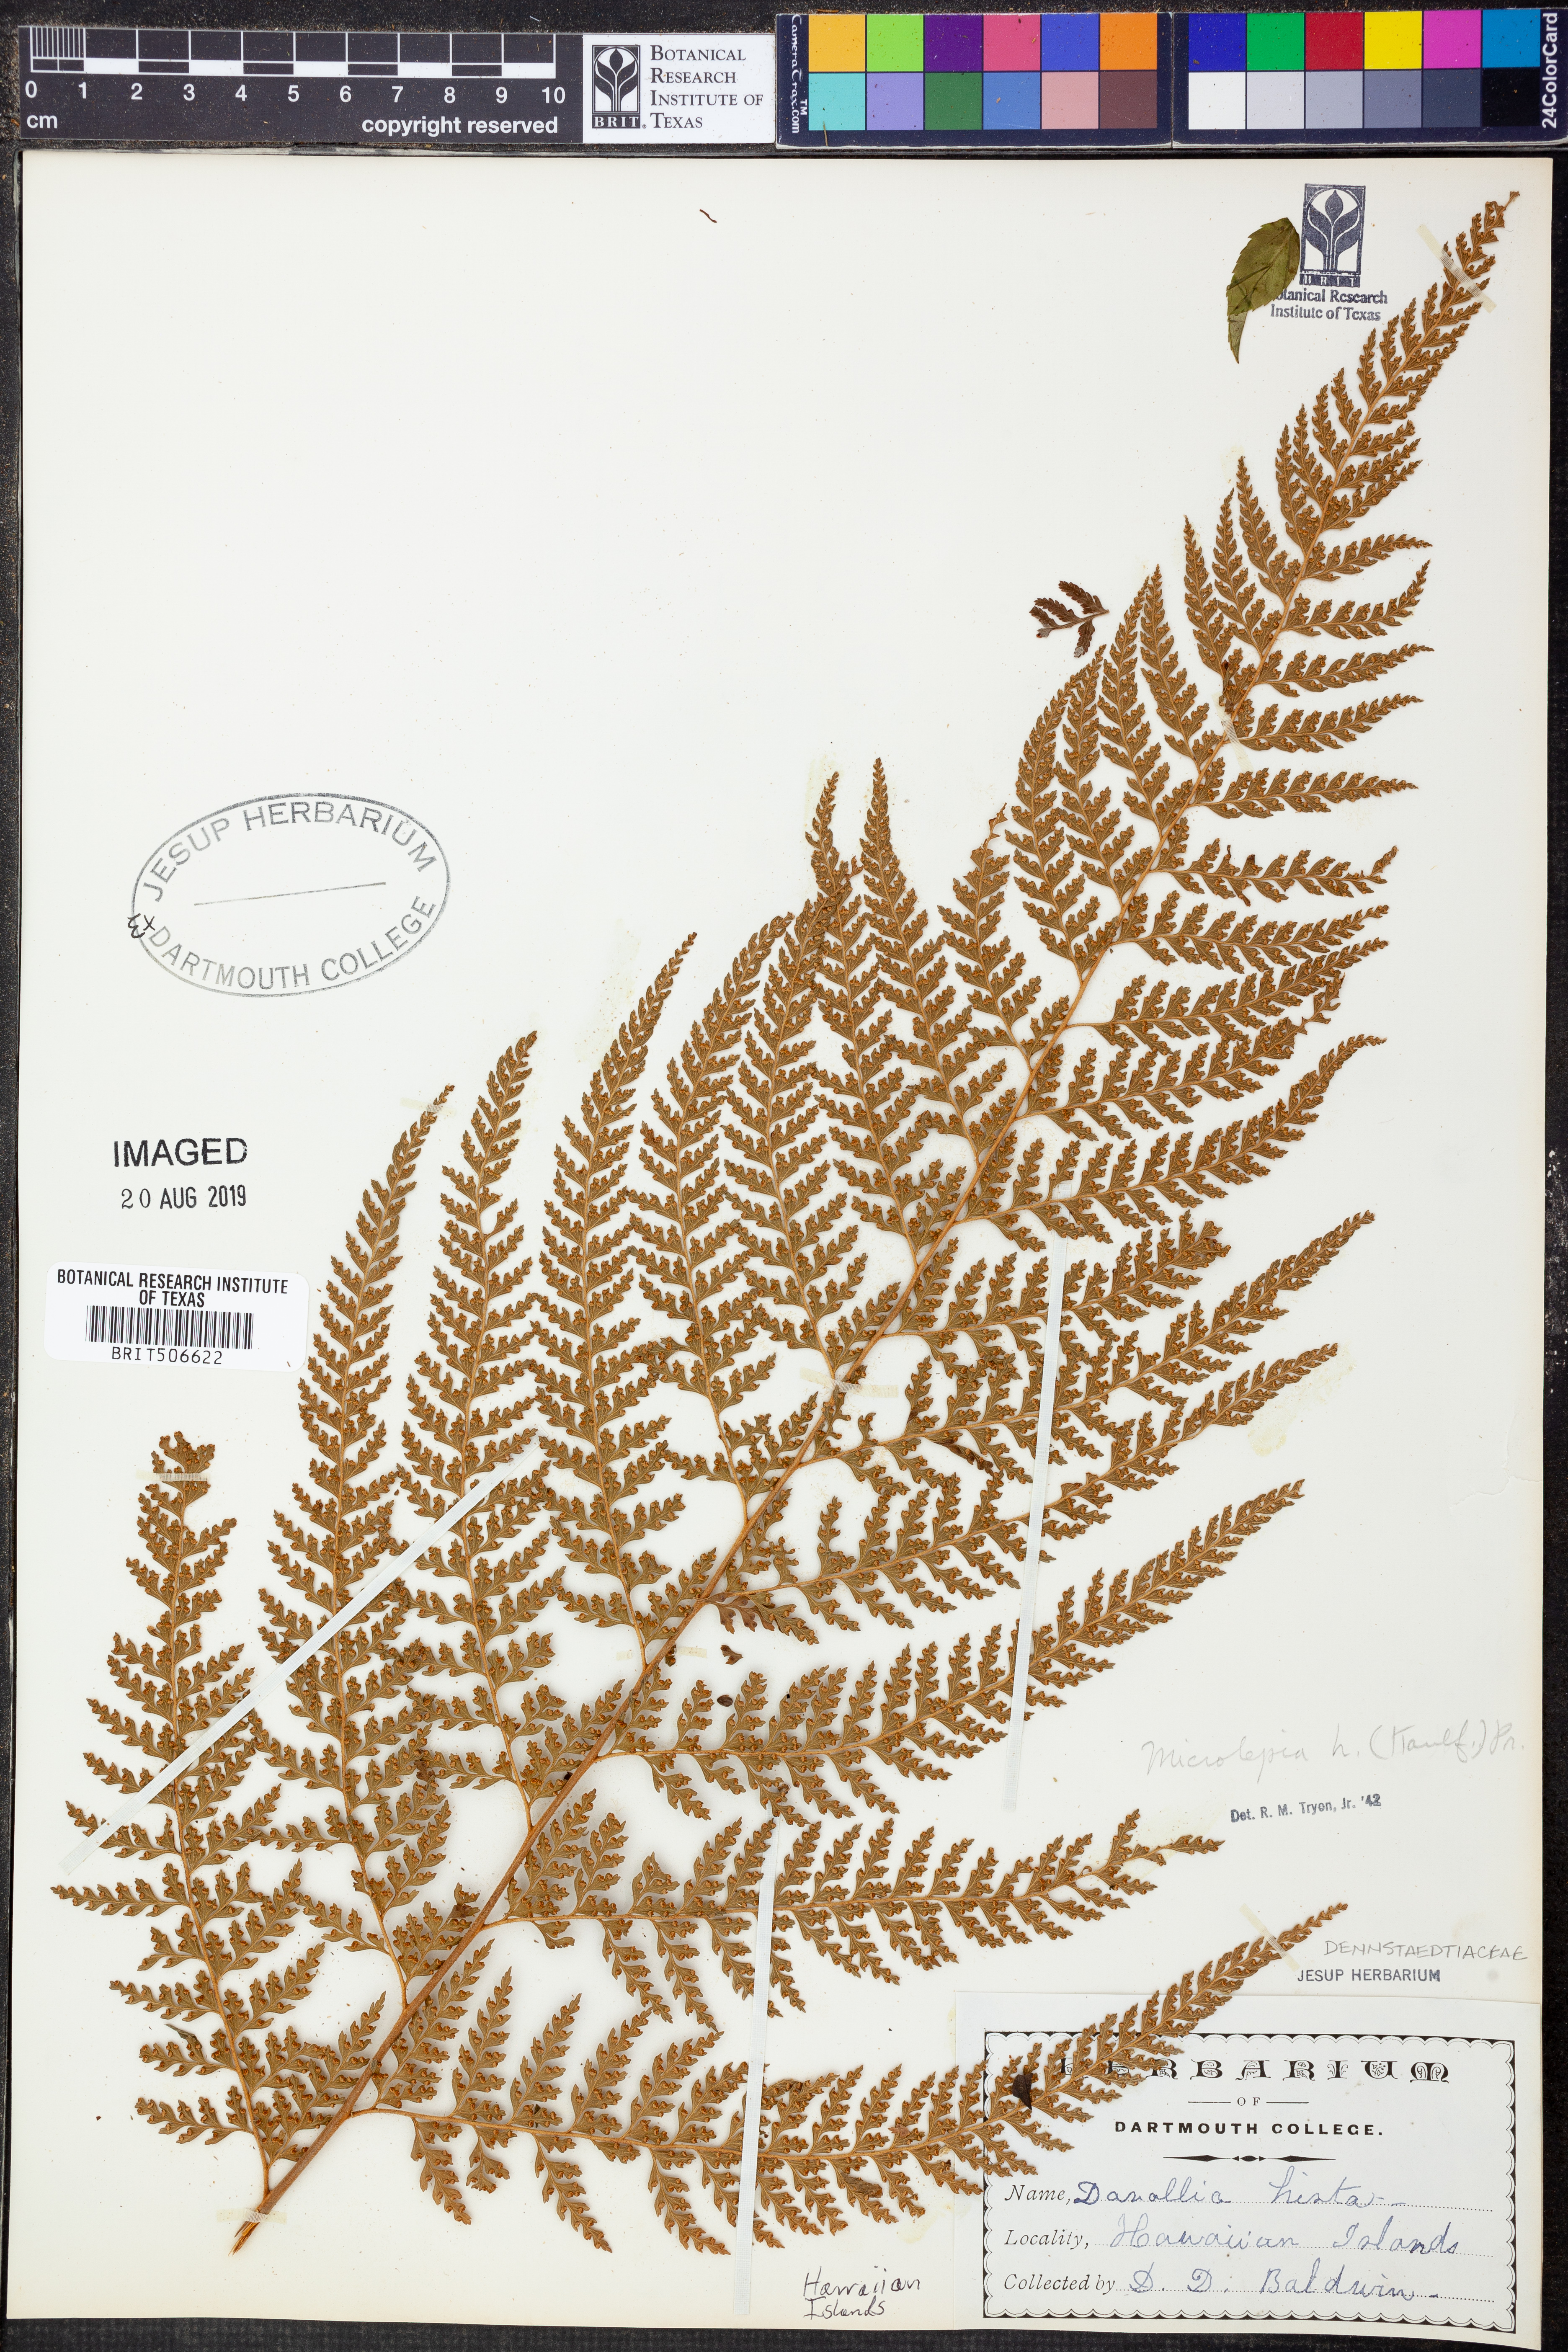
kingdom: Plantae
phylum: Tracheophyta
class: Polypodiopsida
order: Polypodiales
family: Dennstaedtiaceae
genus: Microlepia
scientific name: Microlepia setosa
